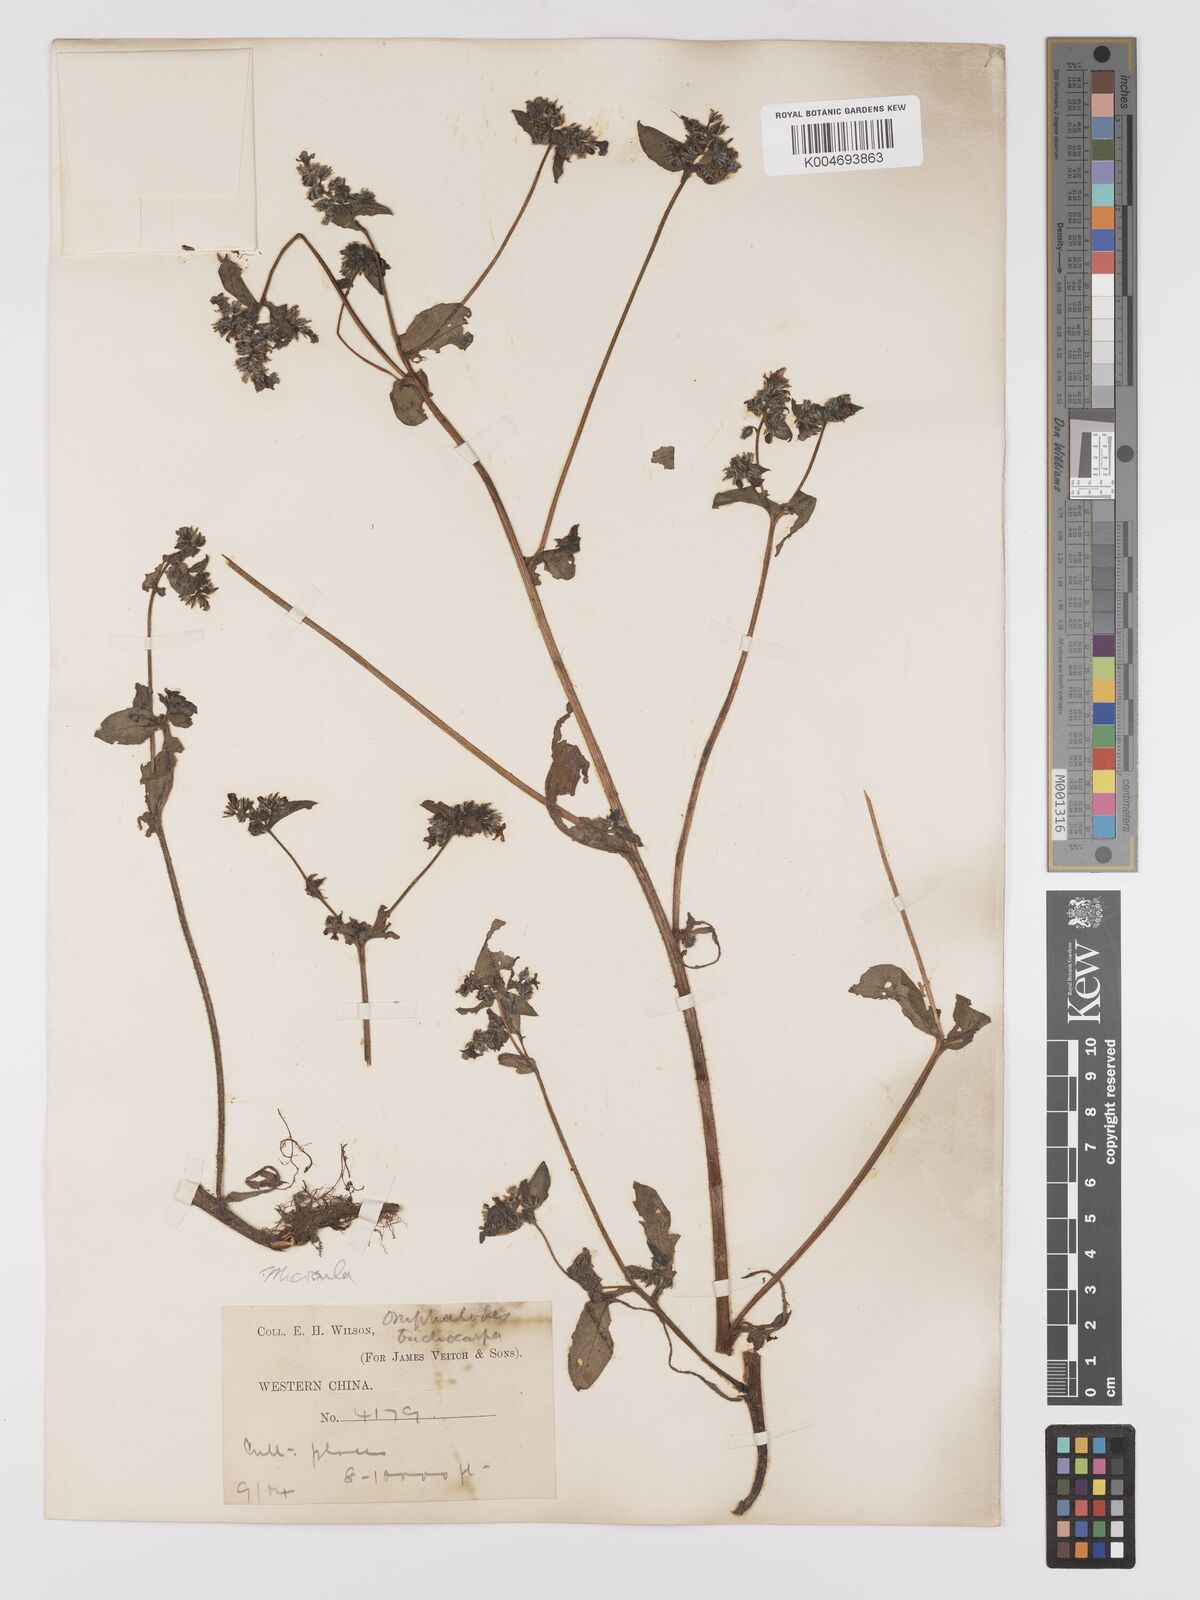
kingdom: Plantae
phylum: Tracheophyta
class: Magnoliopsida
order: Boraginales
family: Boraginaceae
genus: Microula
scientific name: Microula forrestii
